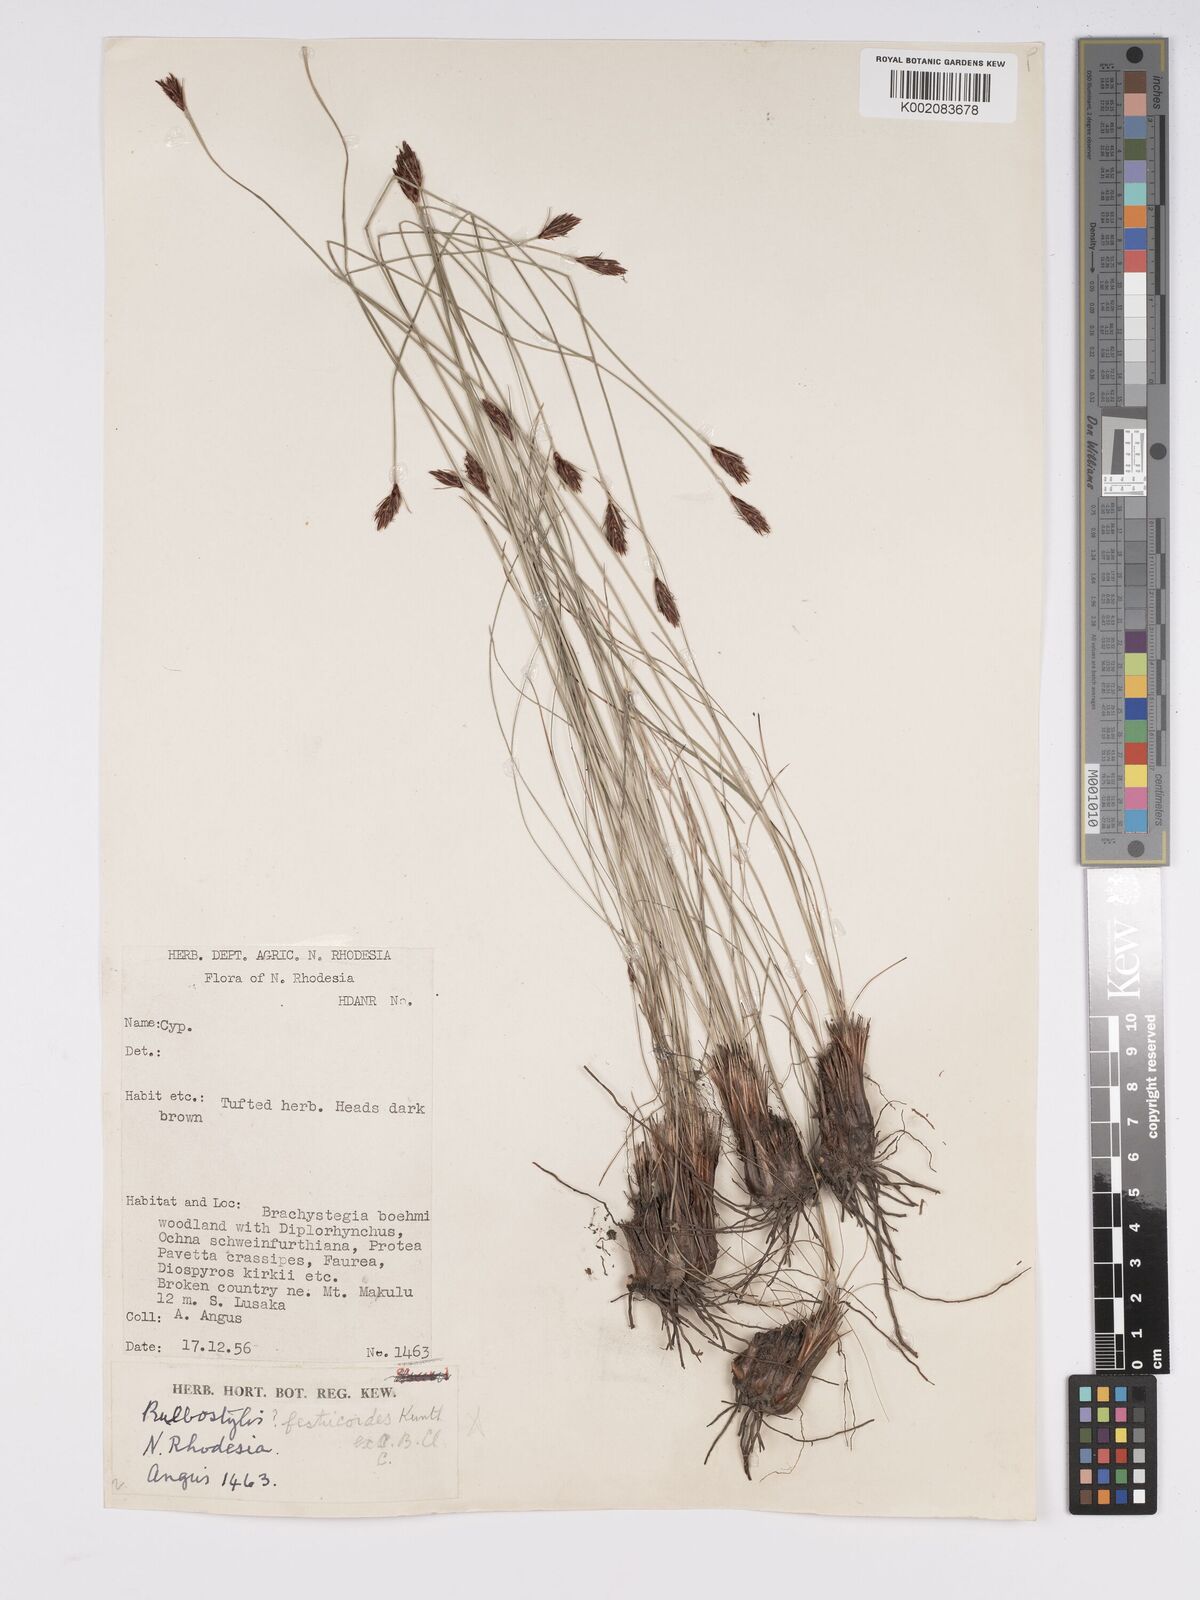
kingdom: Plantae
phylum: Tracheophyta
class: Liliopsida
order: Poales
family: Cyperaceae
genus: Bulbostylis
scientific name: Bulbostylis macra
